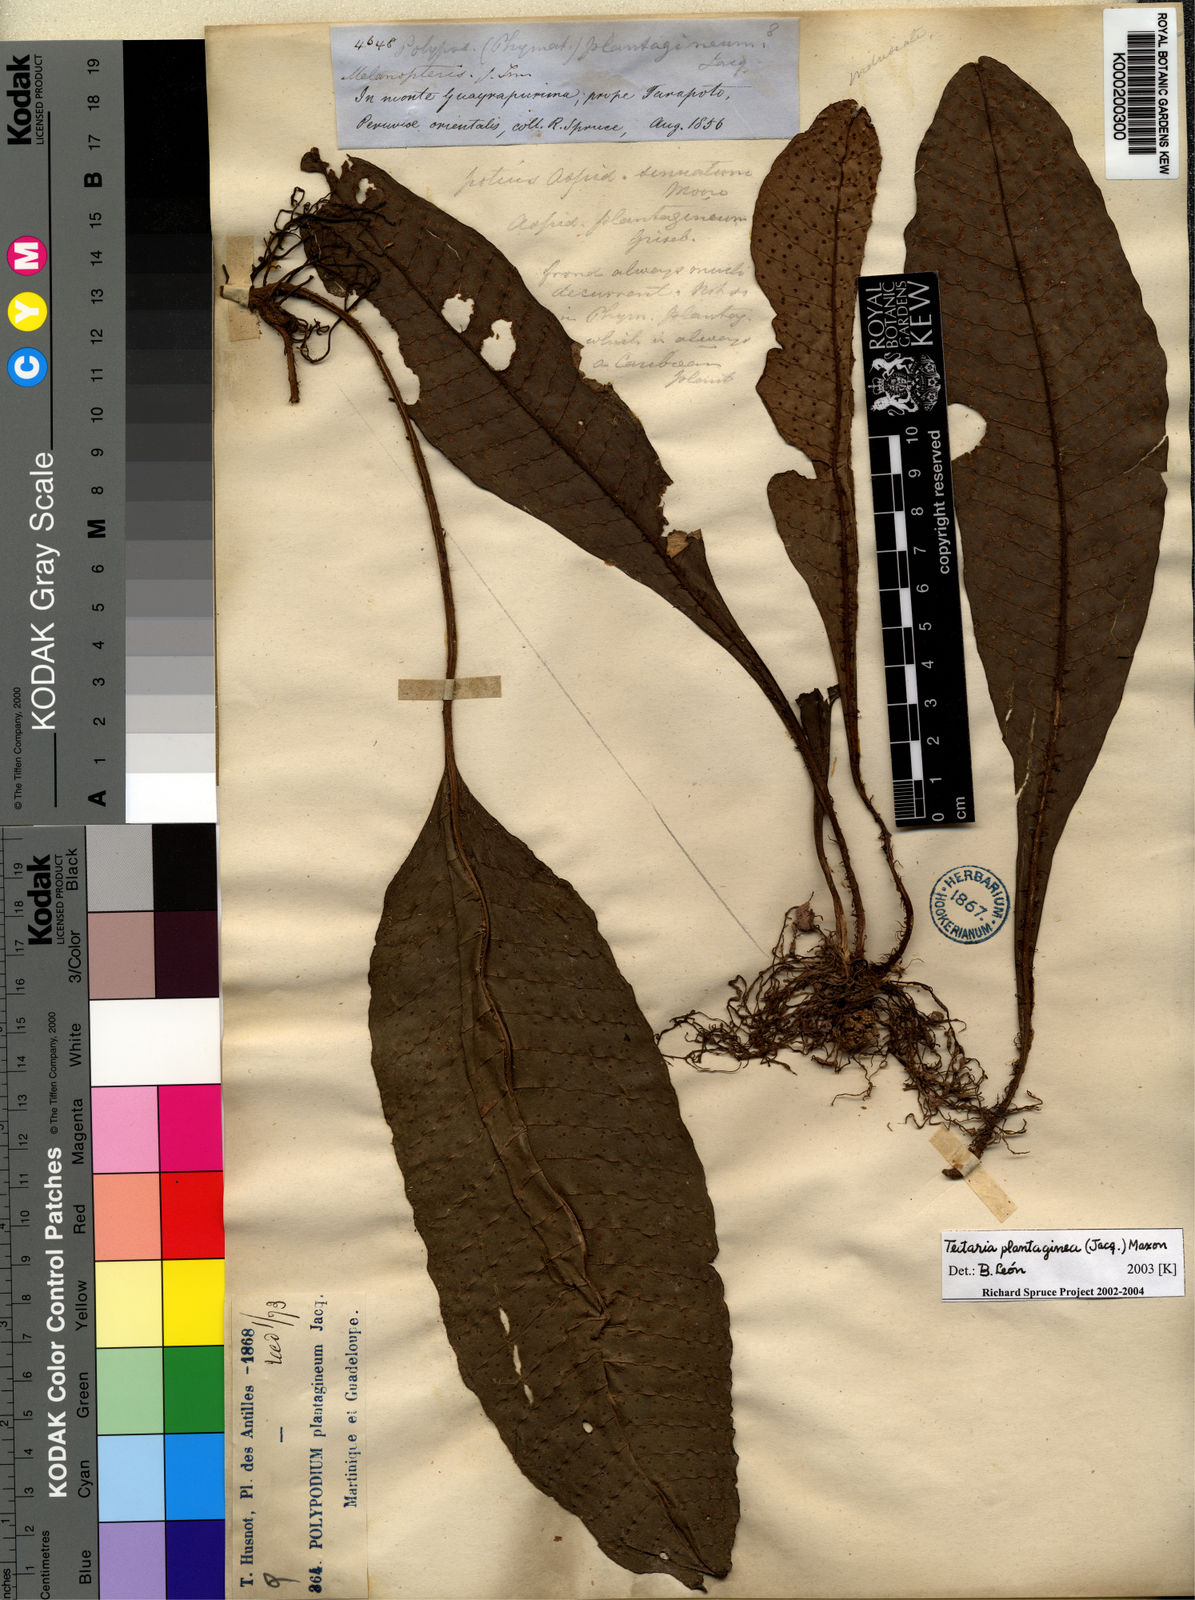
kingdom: Plantae
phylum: Tracheophyta
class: Polypodiopsida
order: Polypodiales
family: Lomariopsidaceae
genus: Dracoglossum
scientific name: Dracoglossum plantagineum
